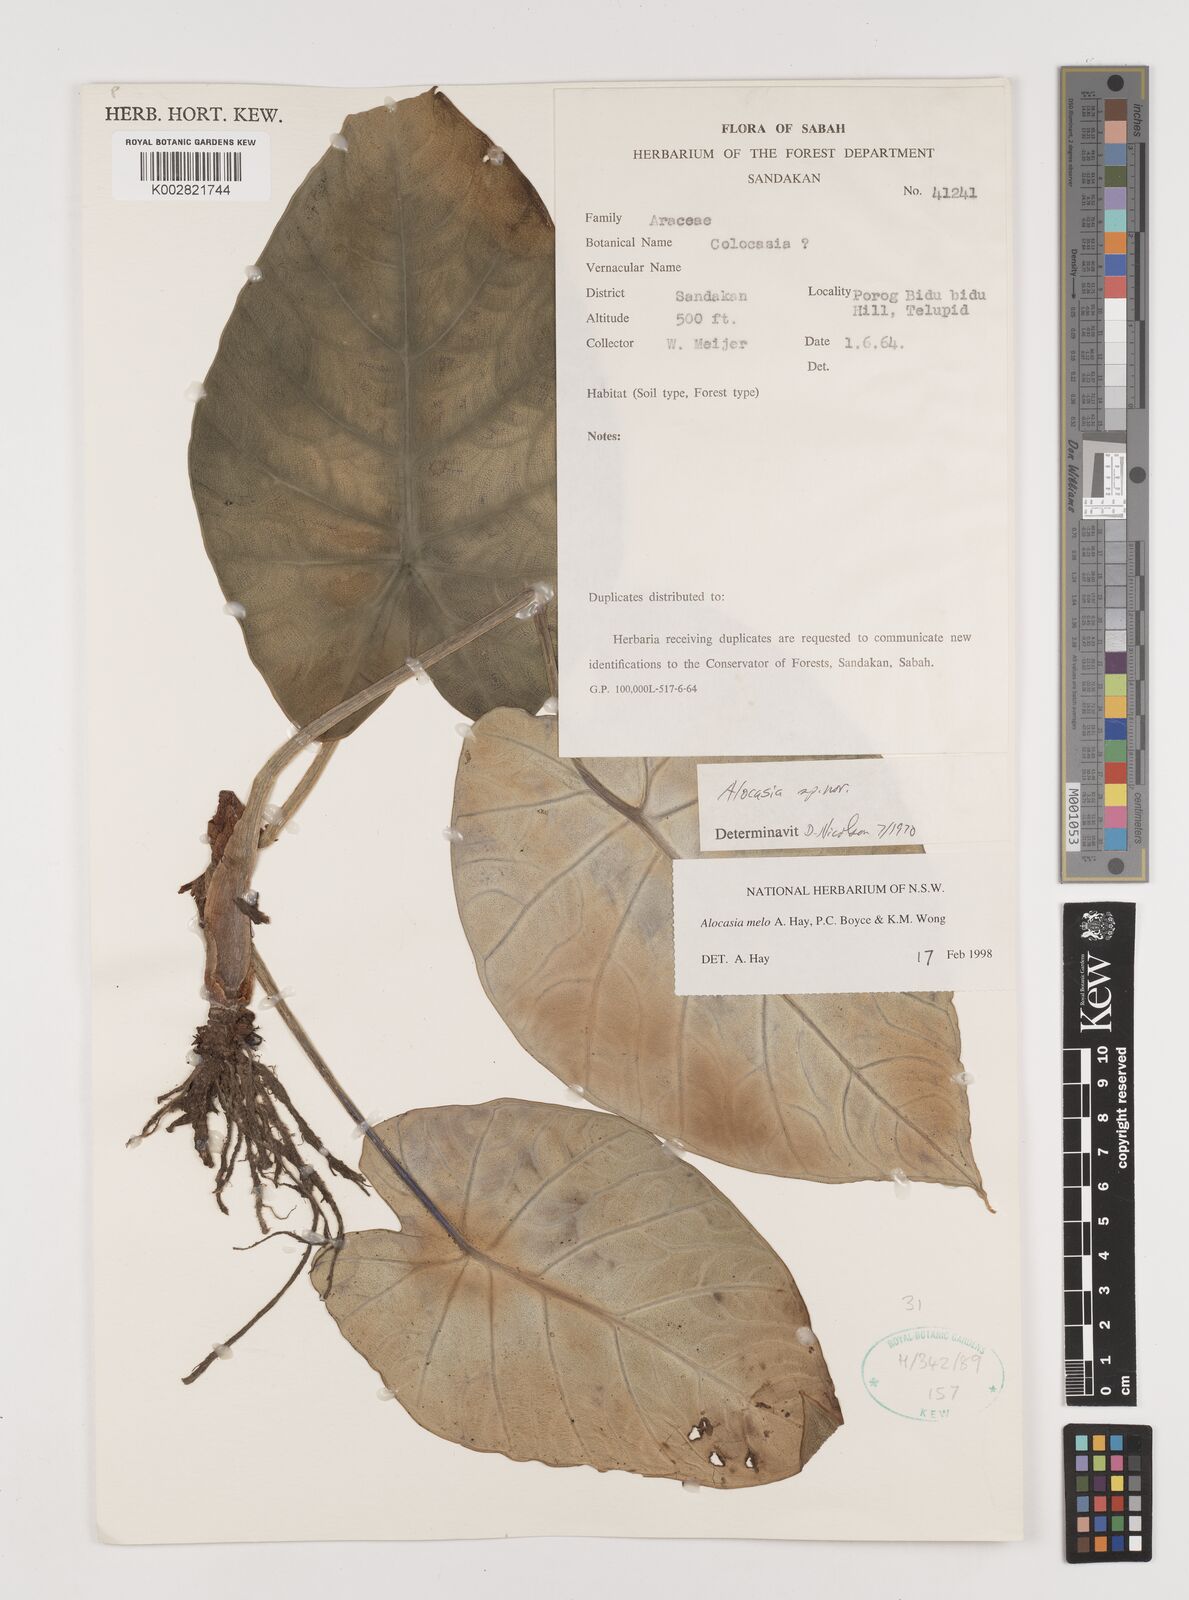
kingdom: Plantae
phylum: Tracheophyta
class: Liliopsida
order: Alismatales
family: Araceae
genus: Alocasia
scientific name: Alocasia melo
